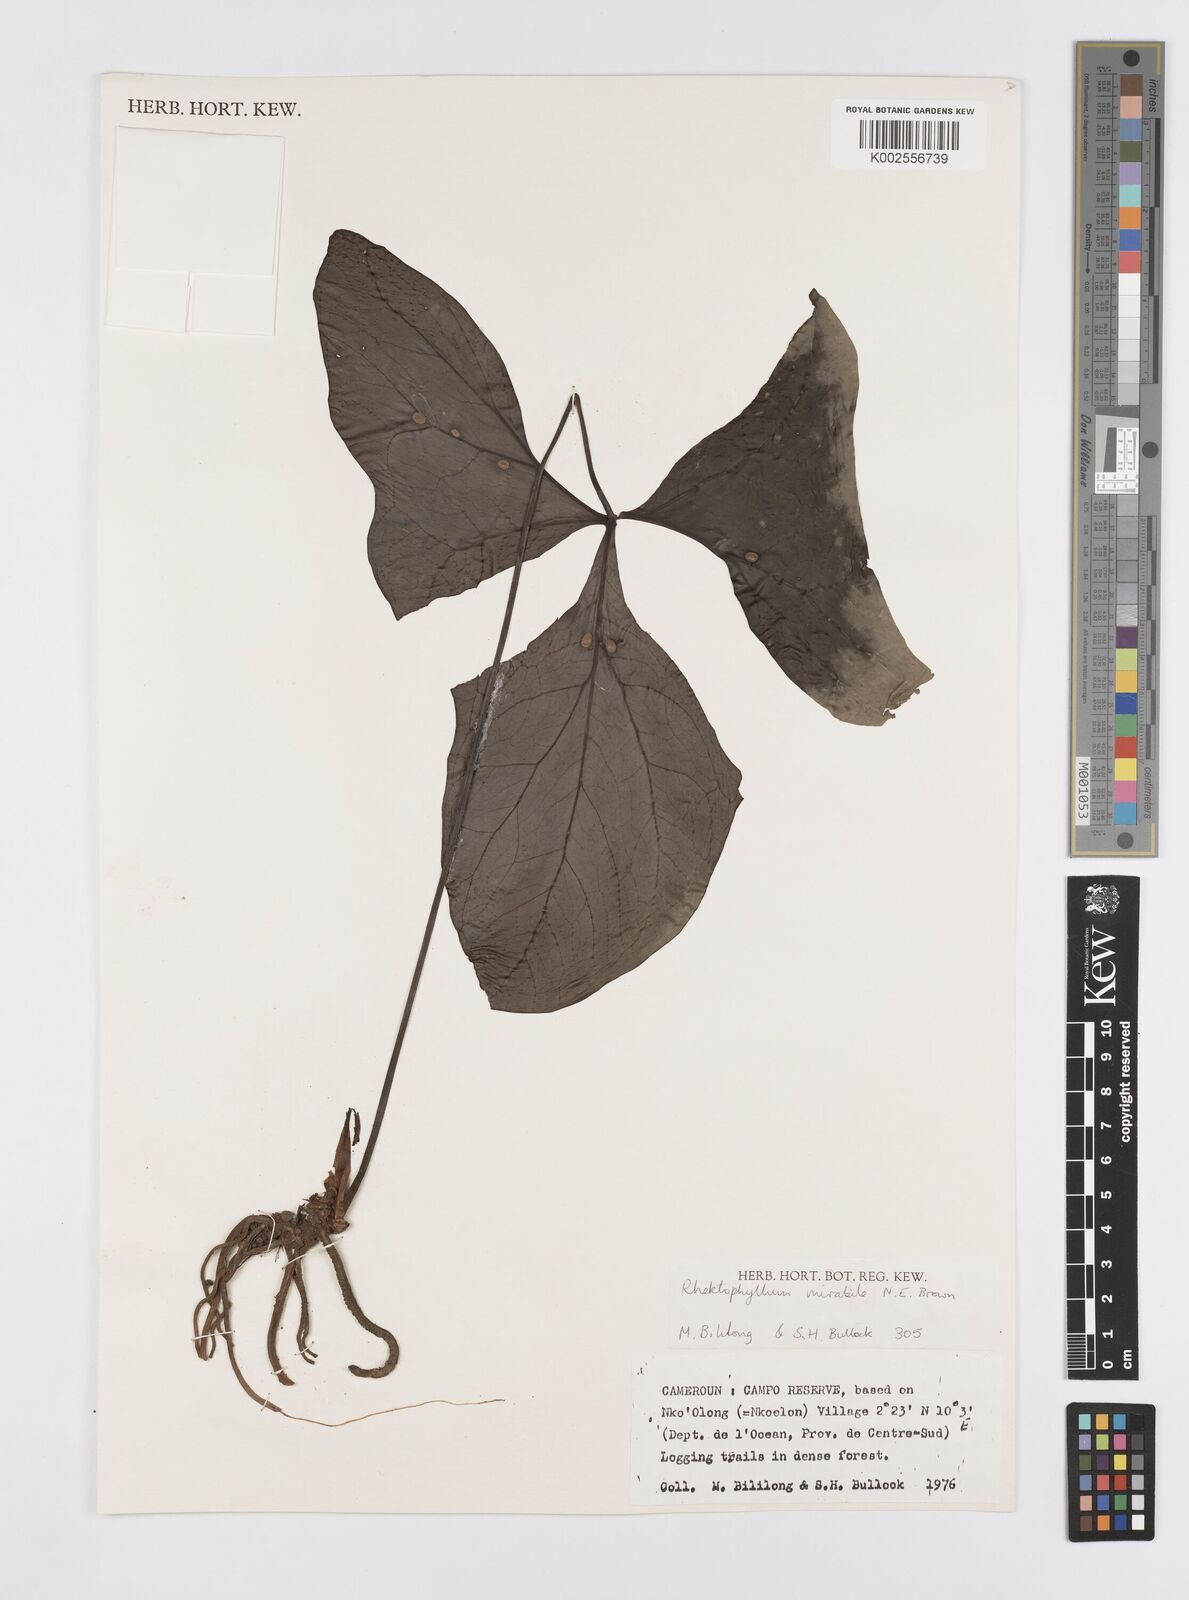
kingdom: Plantae
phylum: Tracheophyta
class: Liliopsida
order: Alismatales
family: Araceae
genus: Cercestis
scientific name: Cercestis mirabilis
